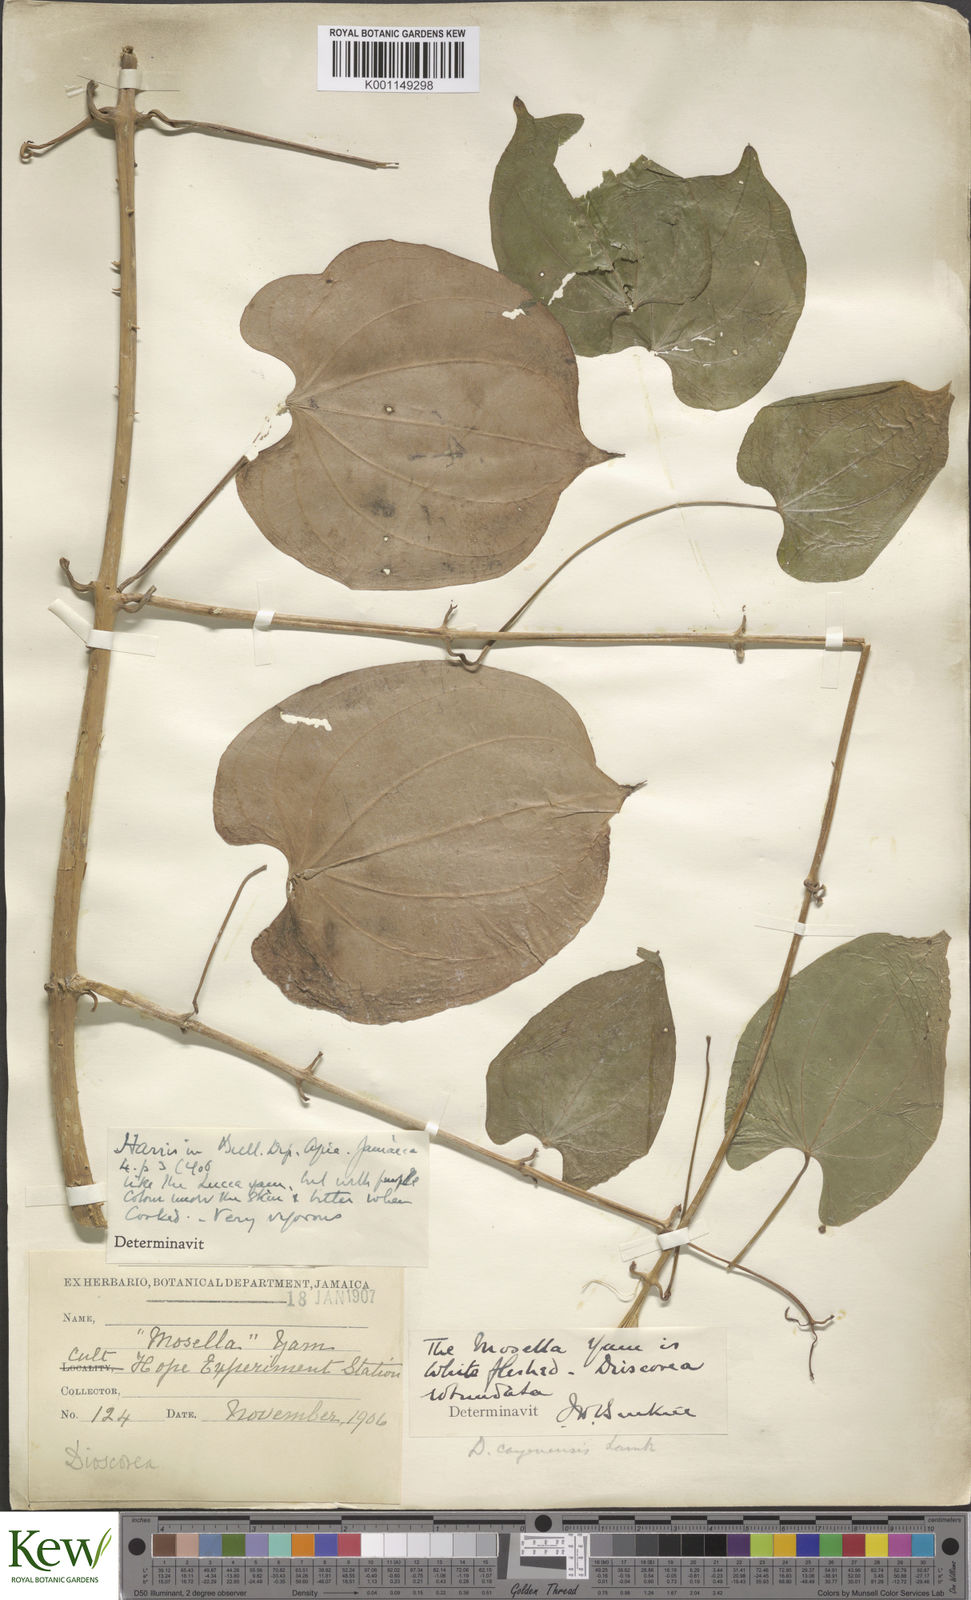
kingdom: Plantae
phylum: Tracheophyta
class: Liliopsida
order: Dioscoreales
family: Dioscoreaceae
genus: Dioscorea
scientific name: Dioscorea cayenensis
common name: Attoto yam
